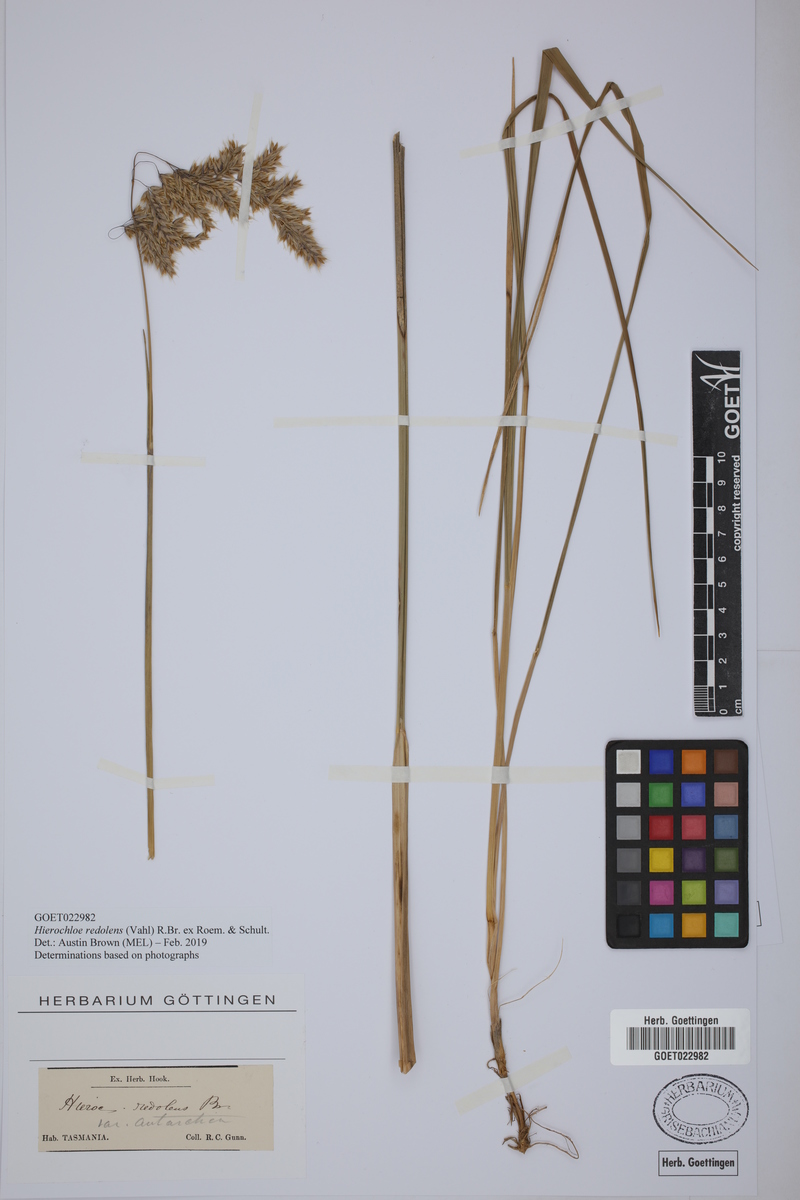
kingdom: Plantae
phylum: Tracheophyta
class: Liliopsida
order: Poales
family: Poaceae
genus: Anthoxanthum
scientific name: Anthoxanthum redolens
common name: Sweet holy grass
